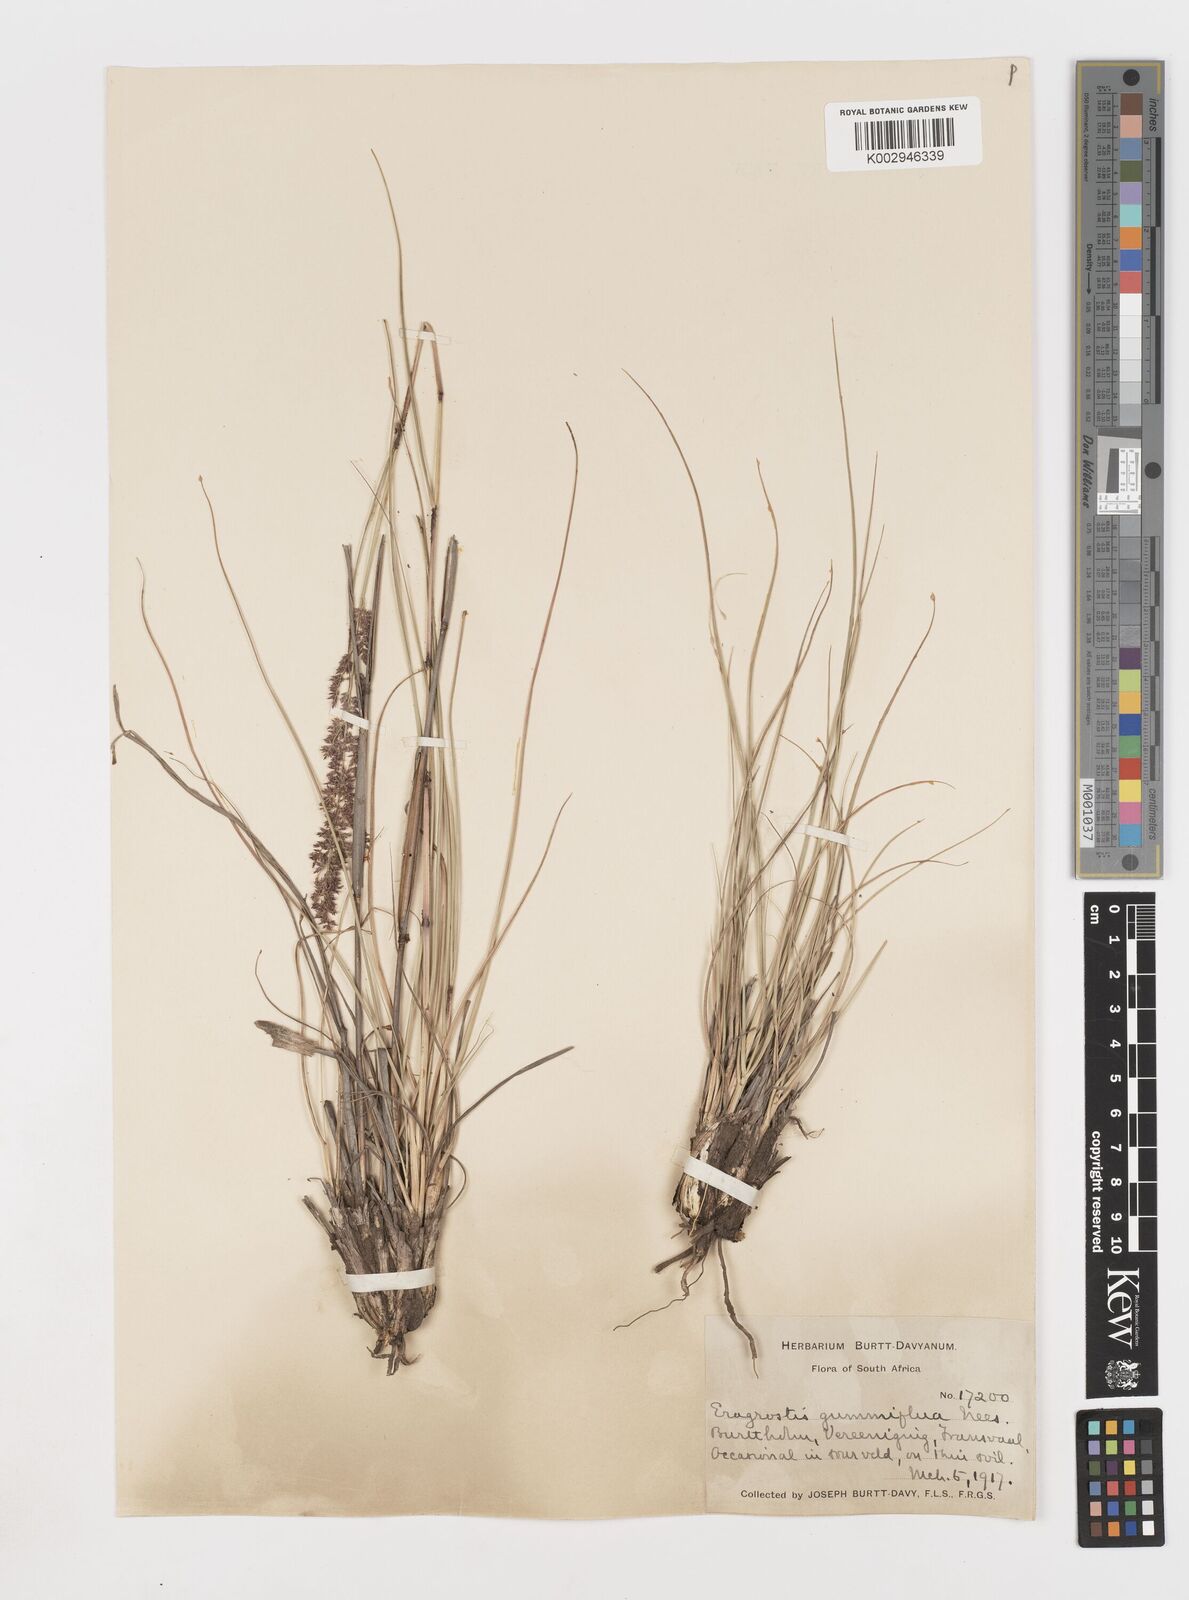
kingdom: Plantae
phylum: Tracheophyta
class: Liliopsida
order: Poales
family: Poaceae
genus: Eragrostis
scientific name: Eragrostis gummiflua
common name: Gum grass
